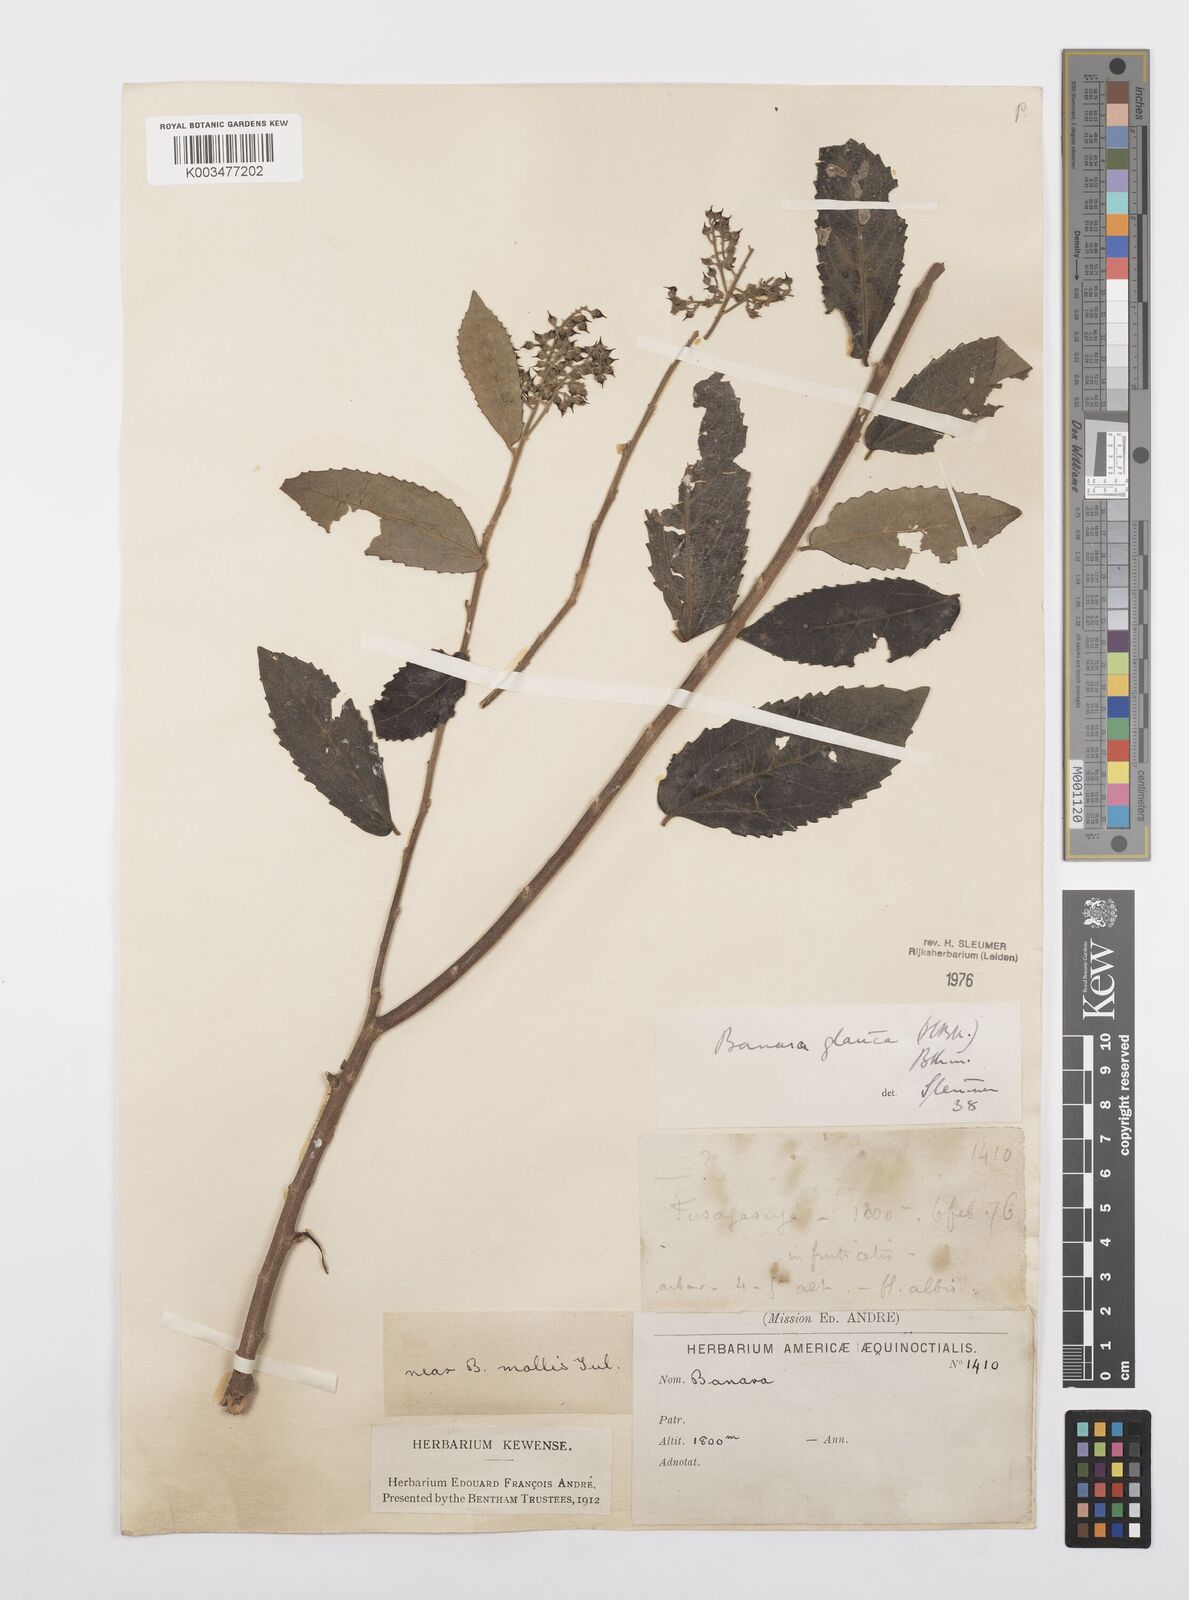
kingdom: Plantae
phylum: Tracheophyta
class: Magnoliopsida
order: Malpighiales
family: Salicaceae
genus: Banara
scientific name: Banara glauca
